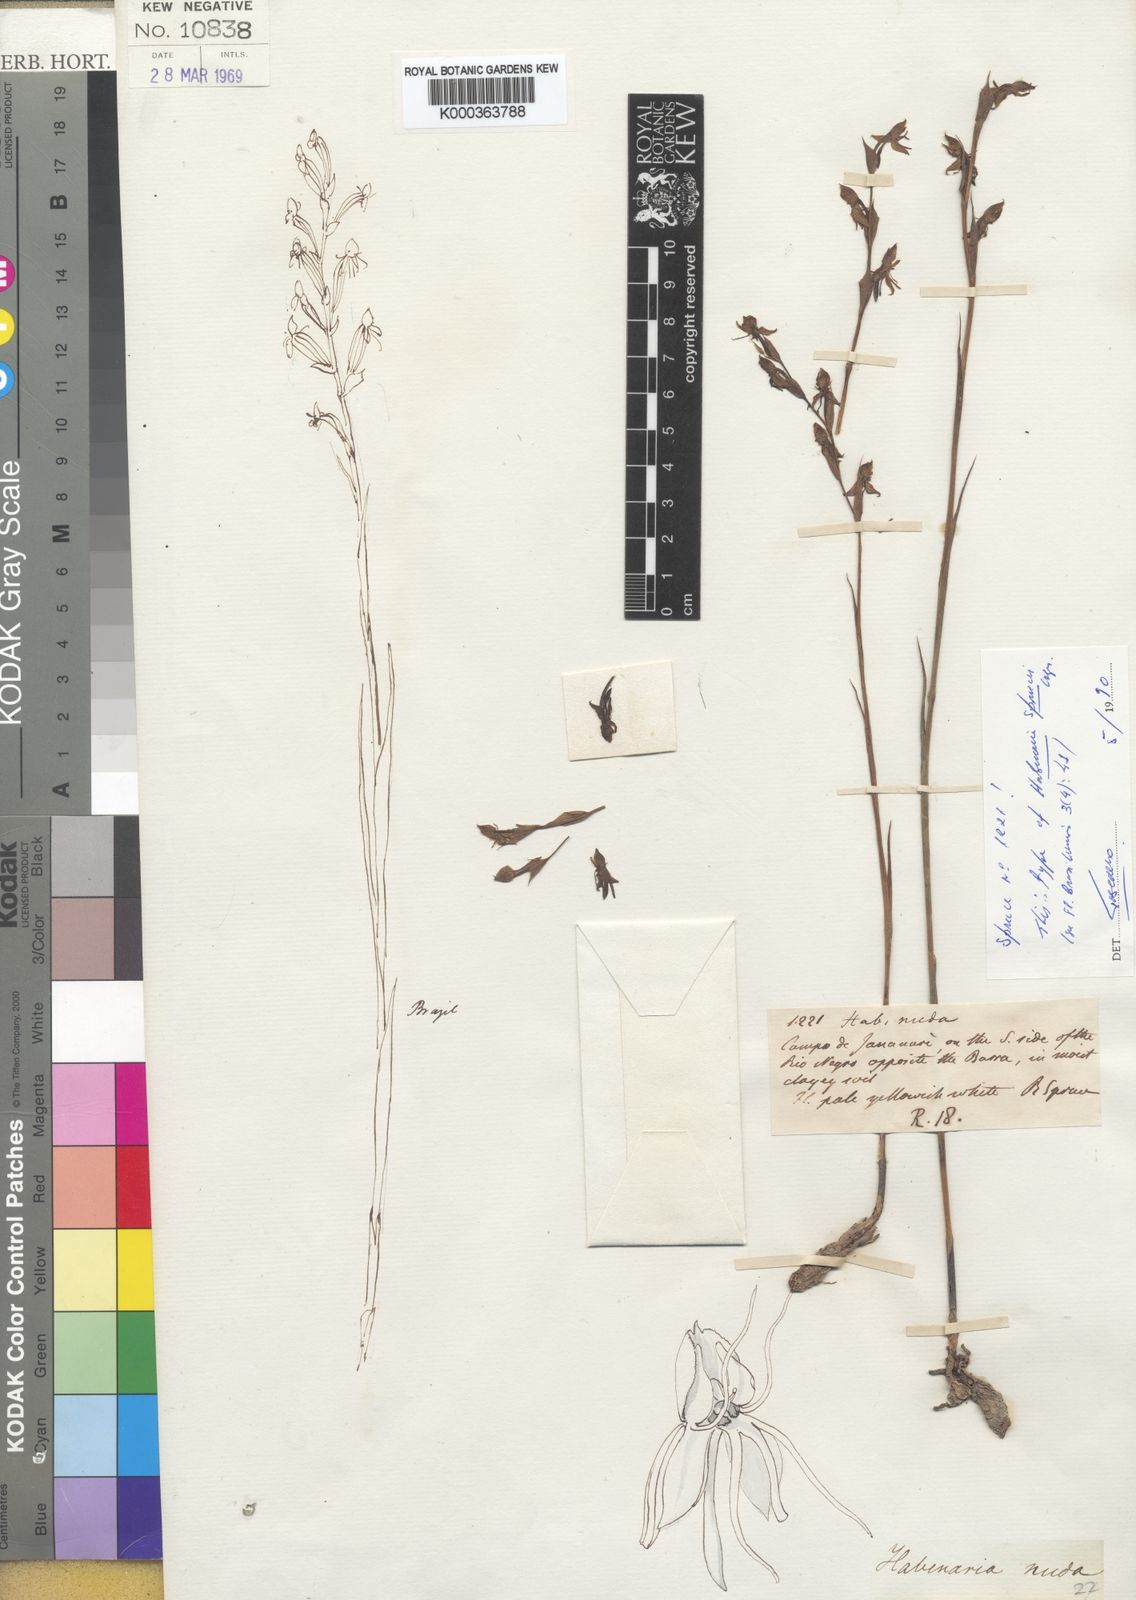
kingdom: Plantae
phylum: Tracheophyta
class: Liliopsida
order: Asparagales
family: Orchidaceae
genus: Habenaria
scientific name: Habenaria sprucei
